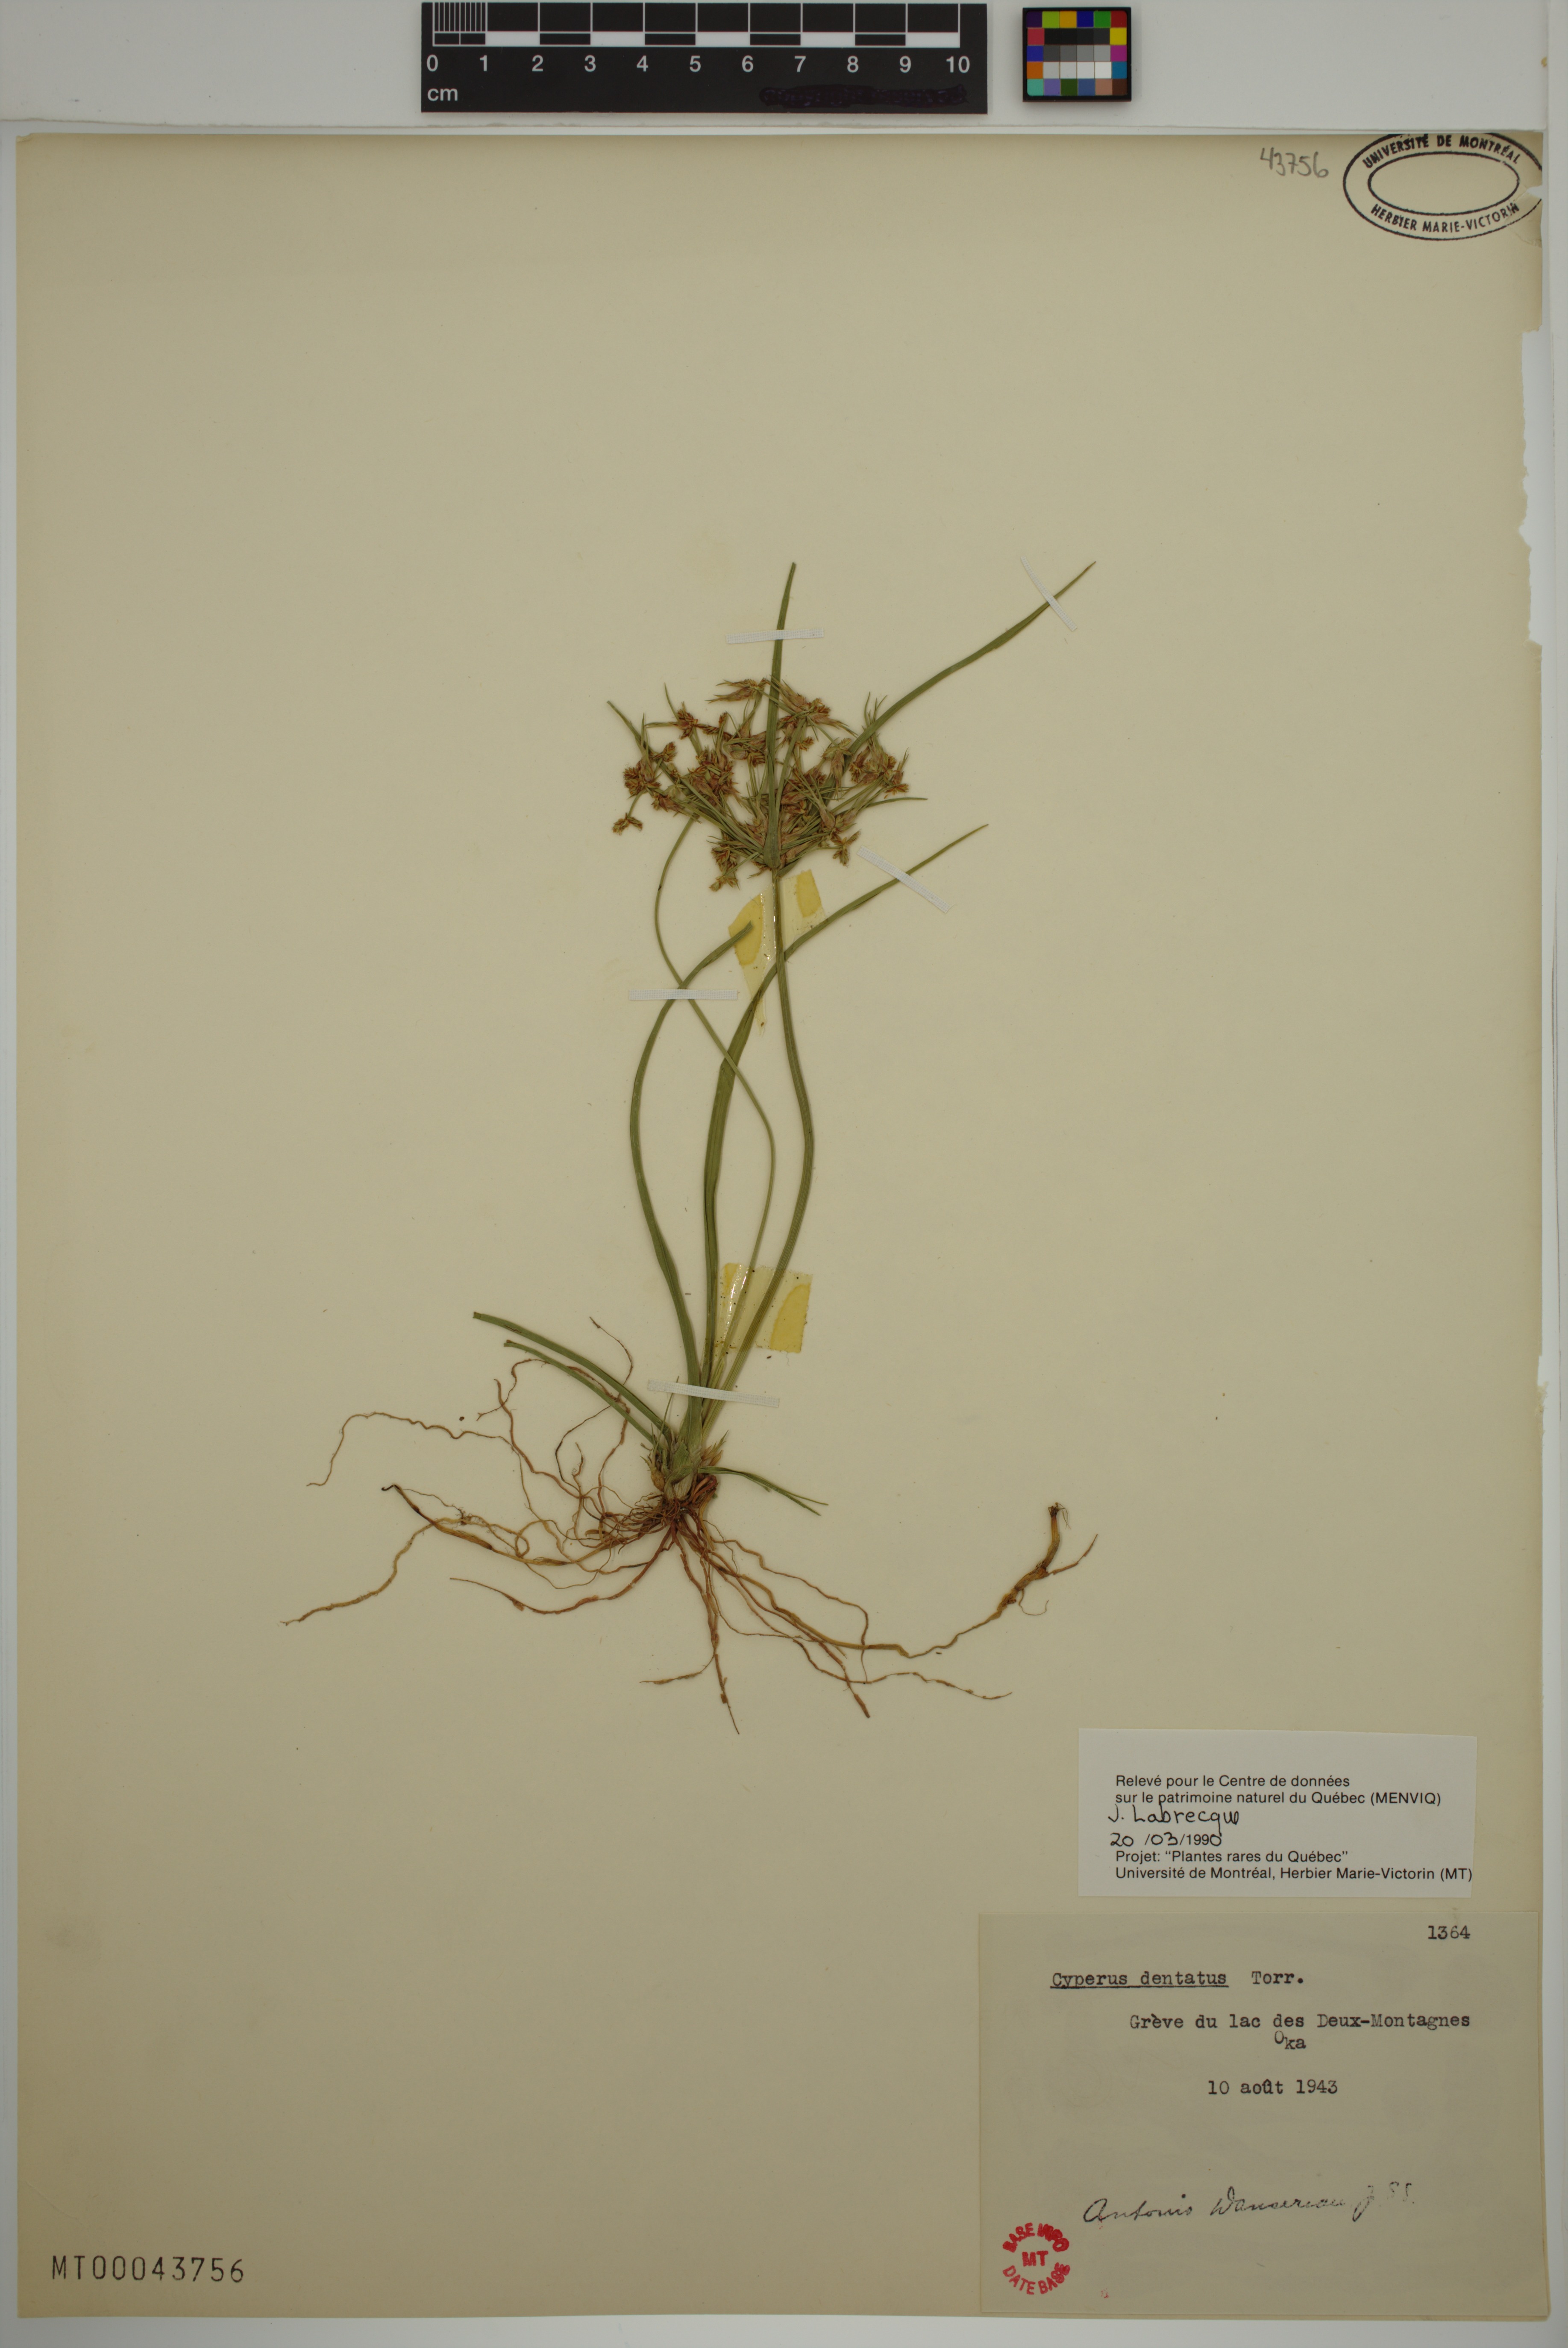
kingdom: Plantae
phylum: Tracheophyta
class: Liliopsida
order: Poales
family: Cyperaceae
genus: Cyperus
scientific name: Cyperus dentatus
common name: Dentate umbrella sedge
